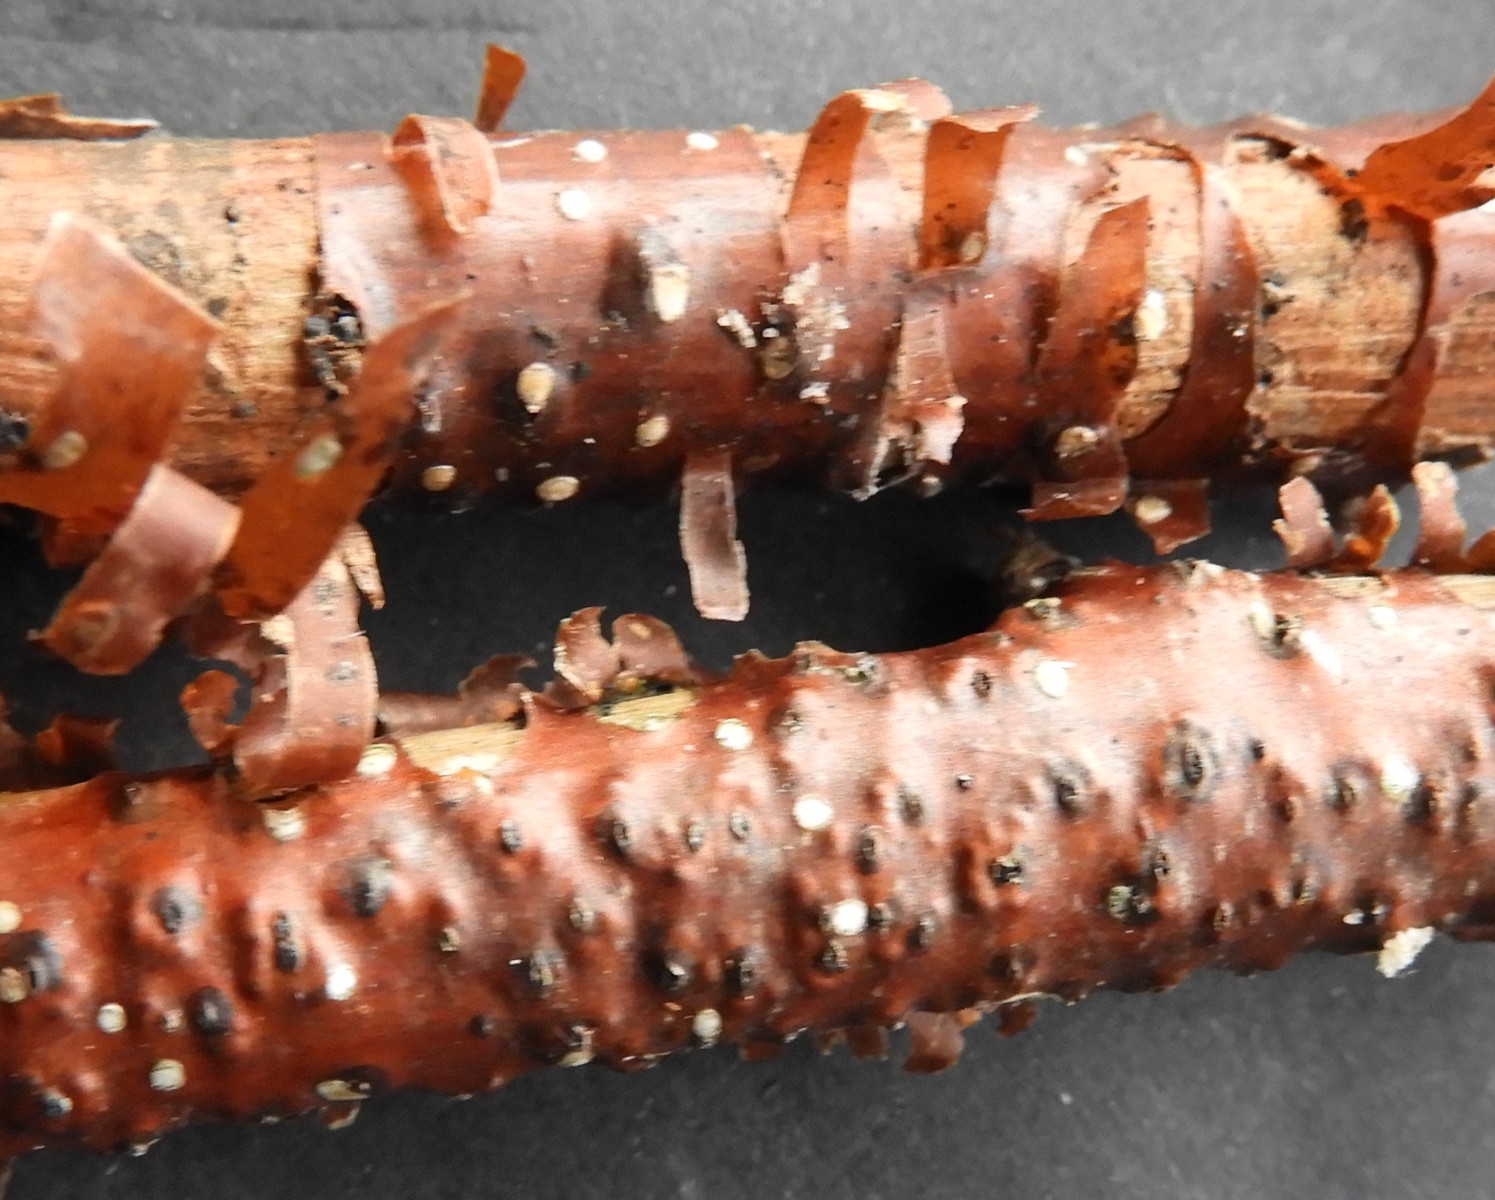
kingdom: Fungi
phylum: Ascomycota
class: Sordariomycetes
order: Xylariales
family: Diatrypaceae
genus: Diatrypella
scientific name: Diatrypella favacea
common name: Birch blackhead
